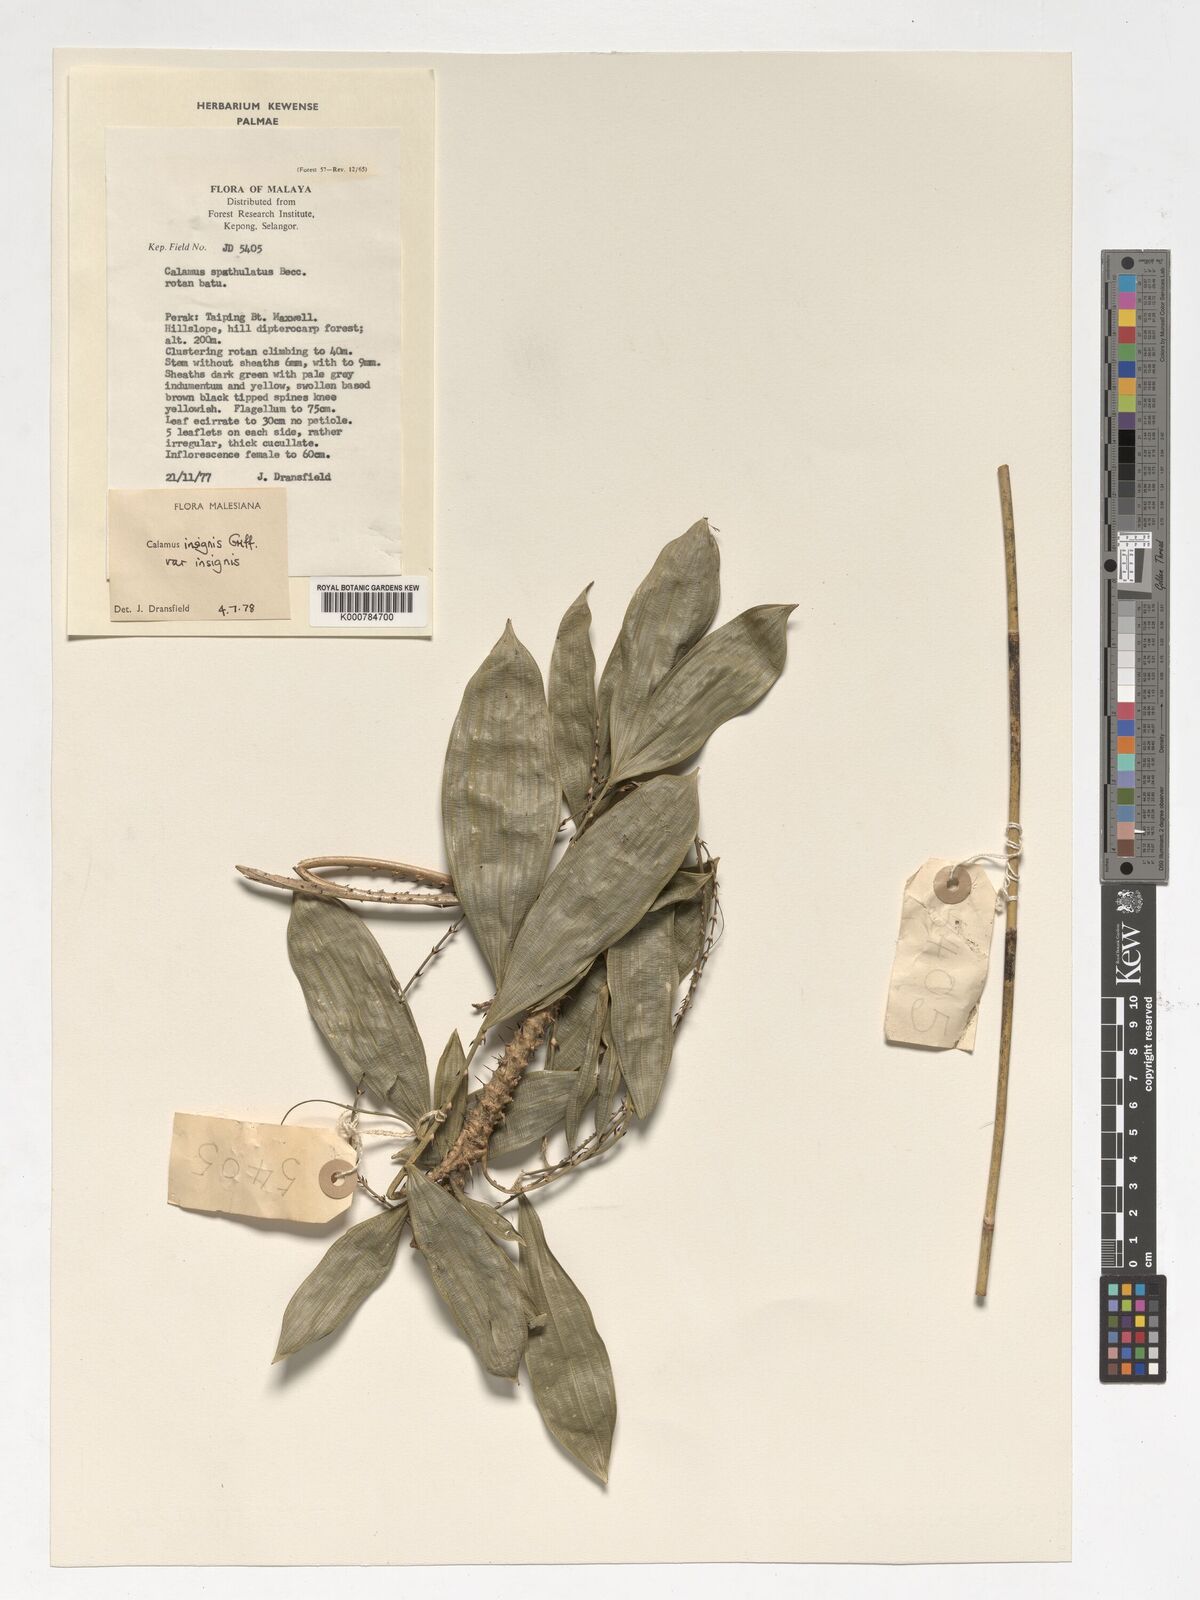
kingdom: Plantae
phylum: Tracheophyta
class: Liliopsida
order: Arecales
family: Arecaceae
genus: Calamus
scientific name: Calamus insignis
